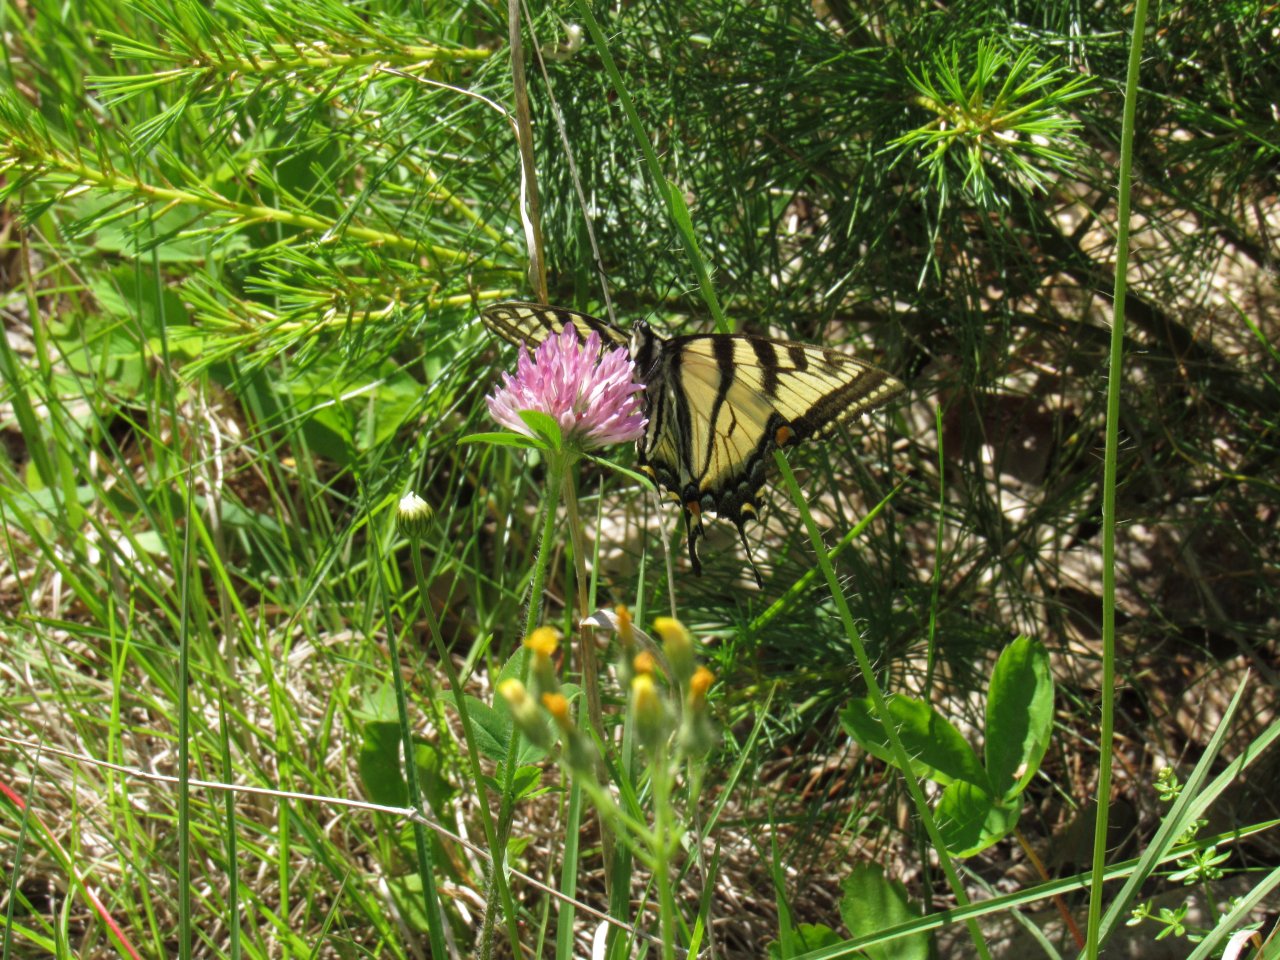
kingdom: Animalia
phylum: Arthropoda
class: Insecta
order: Lepidoptera
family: Papilionidae
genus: Pterourus
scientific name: Pterourus canadensis
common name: Canadian Tiger Swallowtail
